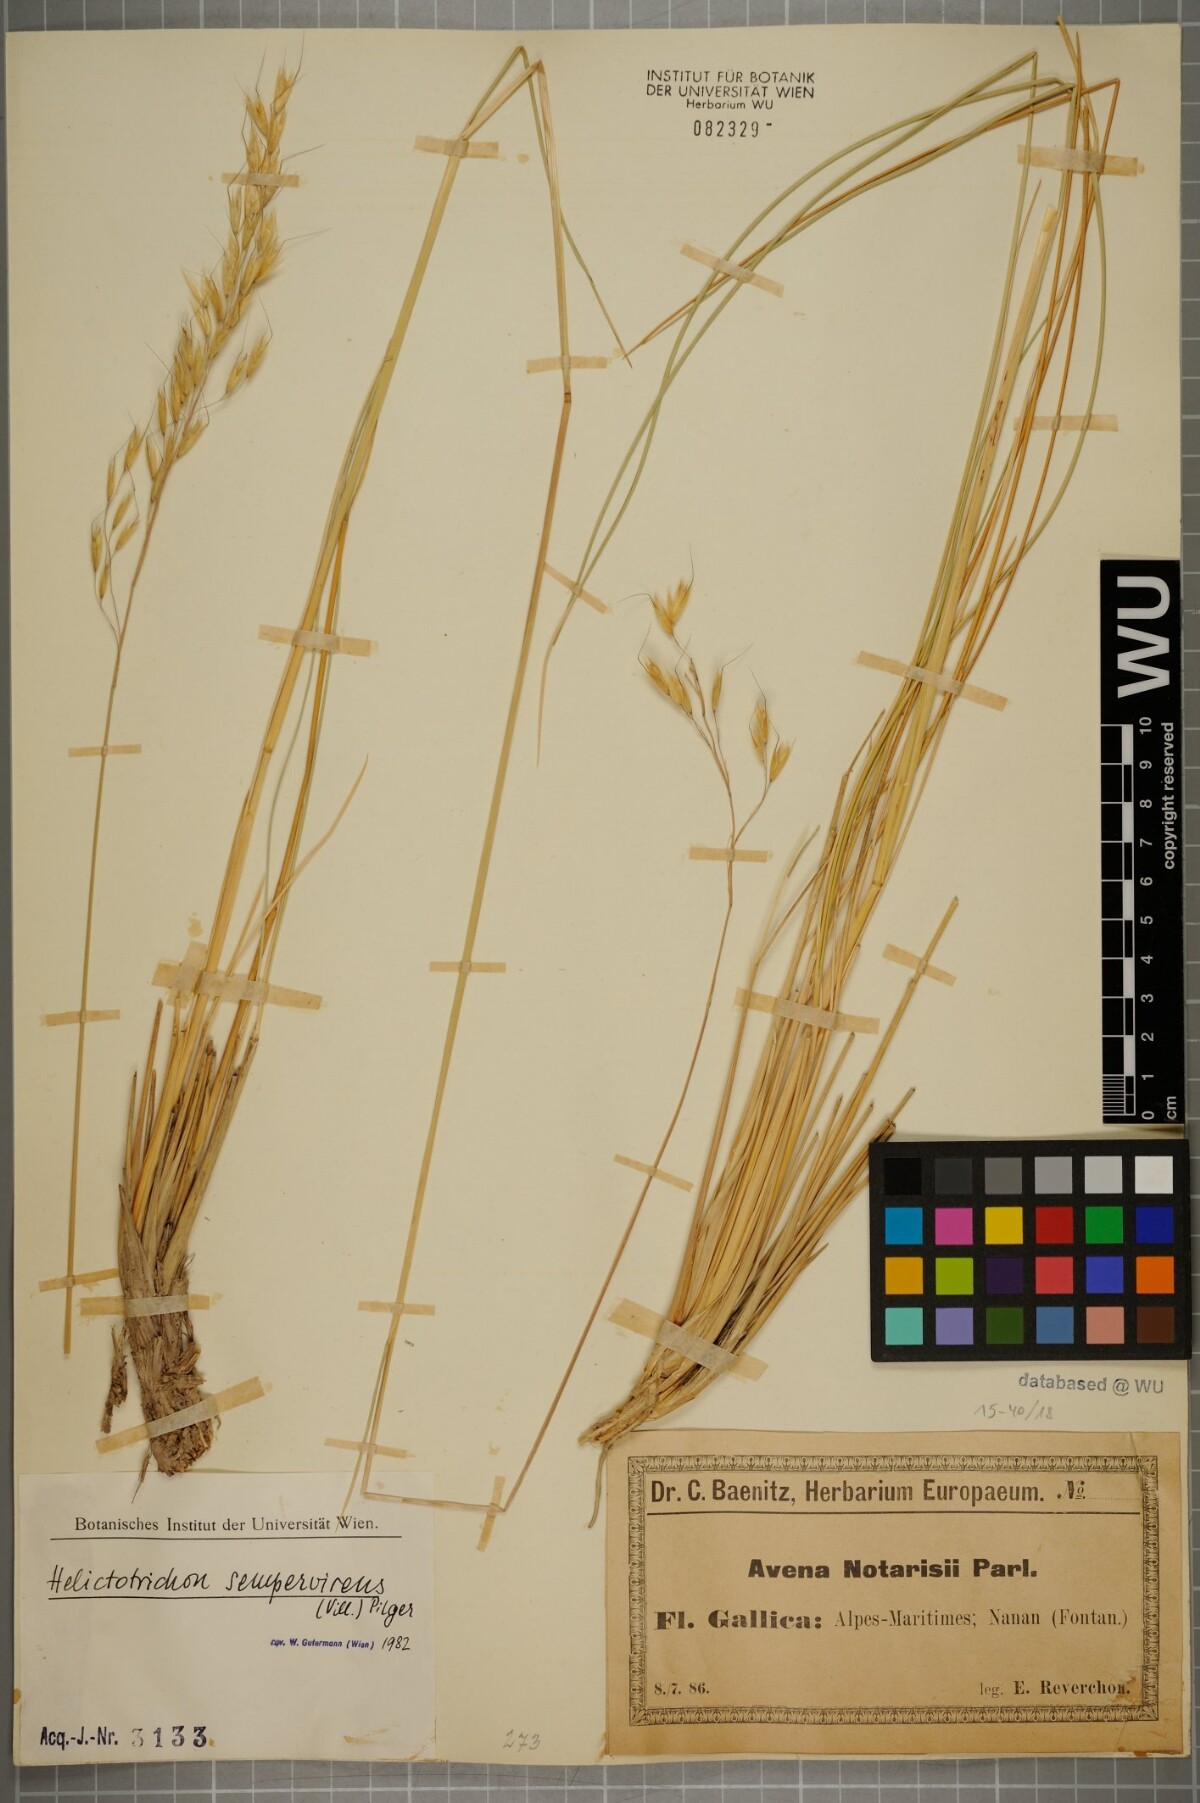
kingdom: Plantae
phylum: Tracheophyta
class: Liliopsida
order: Poales
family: Poaceae
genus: Helictotrichon
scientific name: Helictotrichon sempervirens
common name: Blue oat-grass
